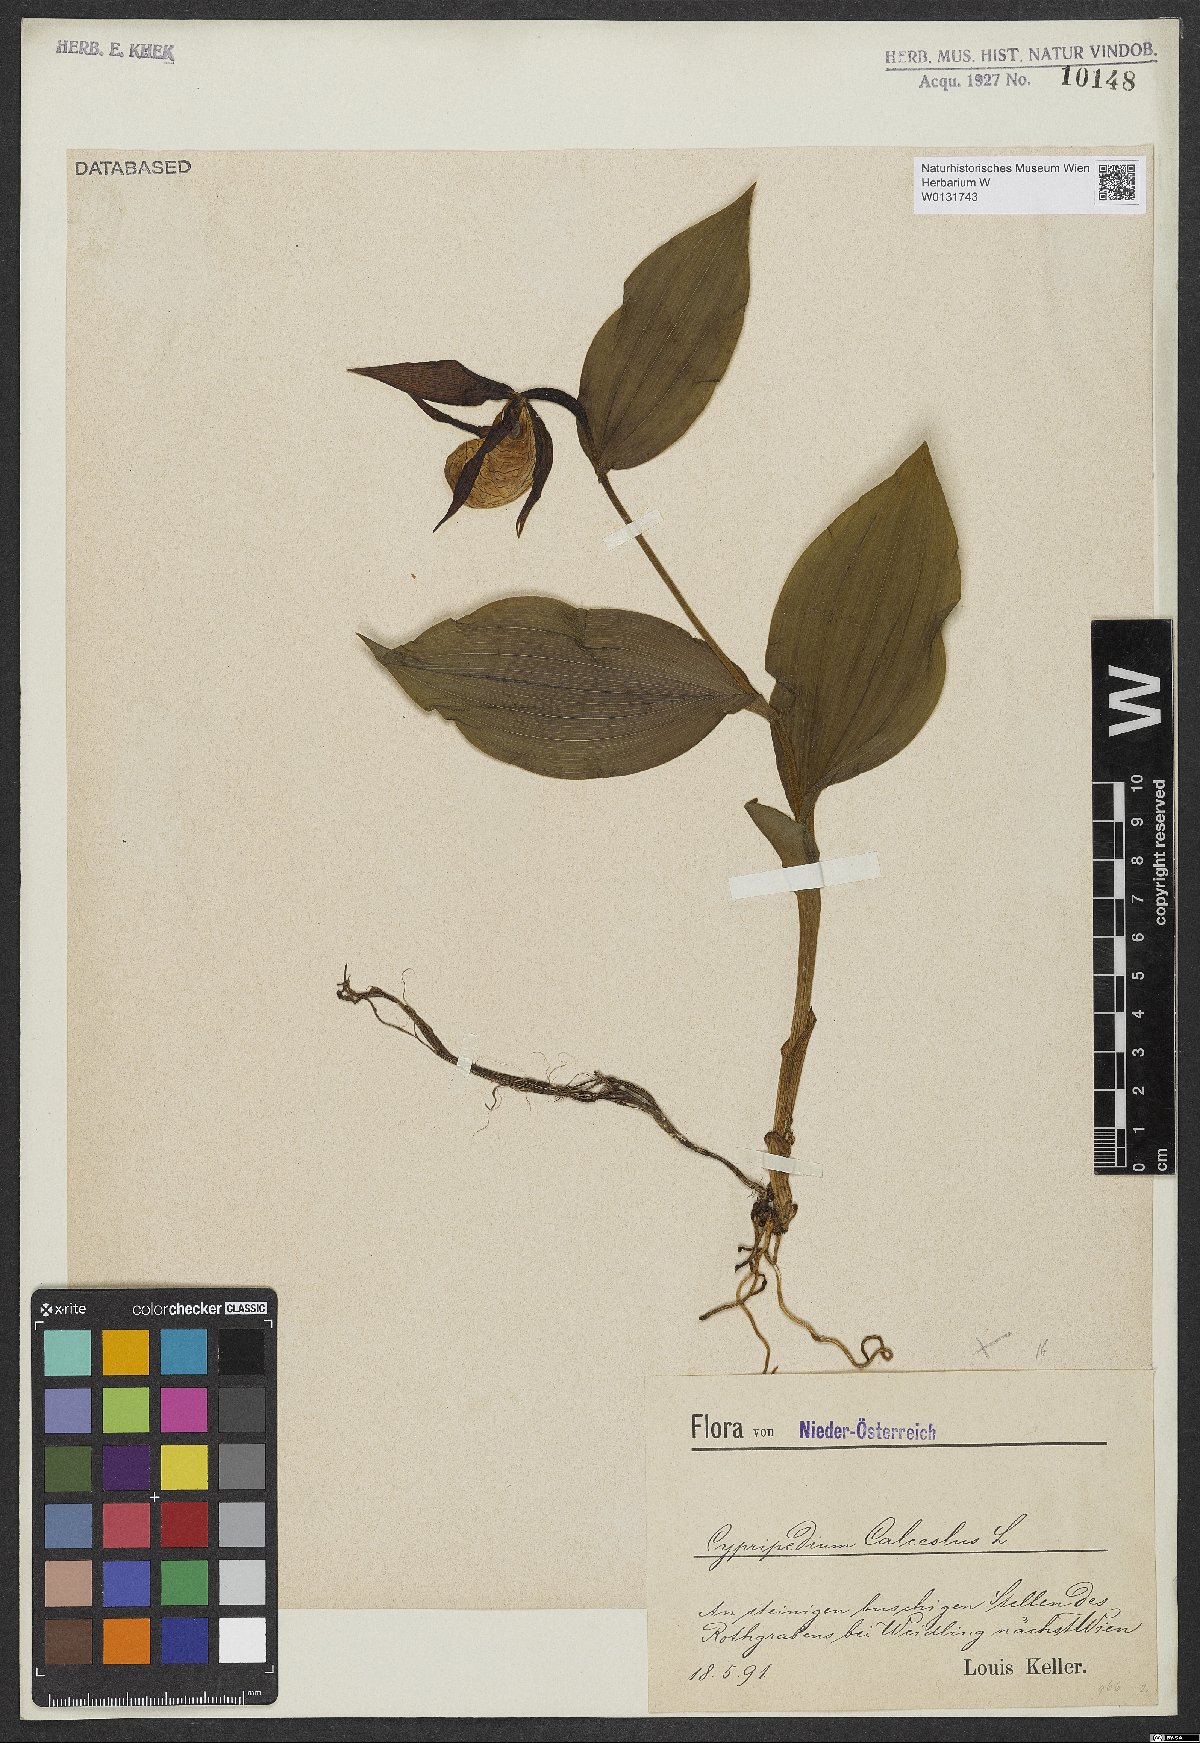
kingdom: Plantae
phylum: Tracheophyta
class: Liliopsida
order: Asparagales
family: Orchidaceae
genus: Cypripedium
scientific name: Cypripedium calceolus
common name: Lady's-slipper
